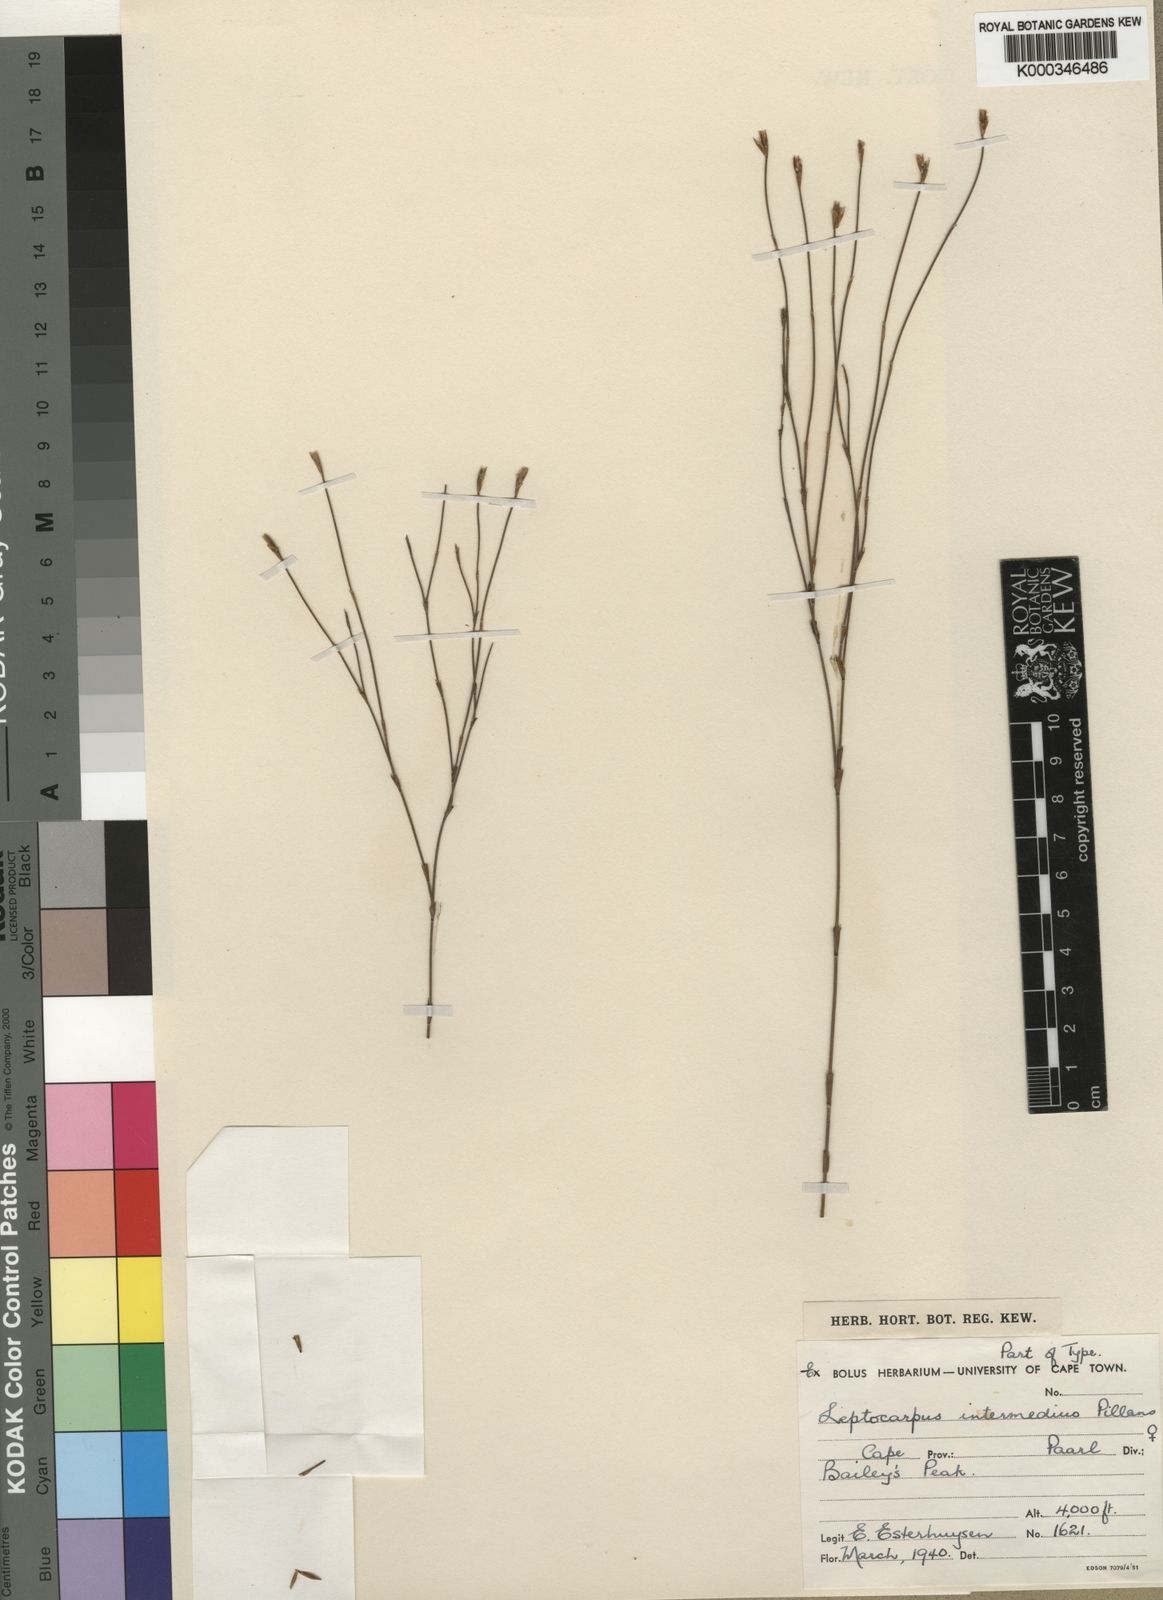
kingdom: Plantae
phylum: Tracheophyta
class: Liliopsida
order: Poales
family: Restionaceae
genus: Restio
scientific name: Restio degenerans
